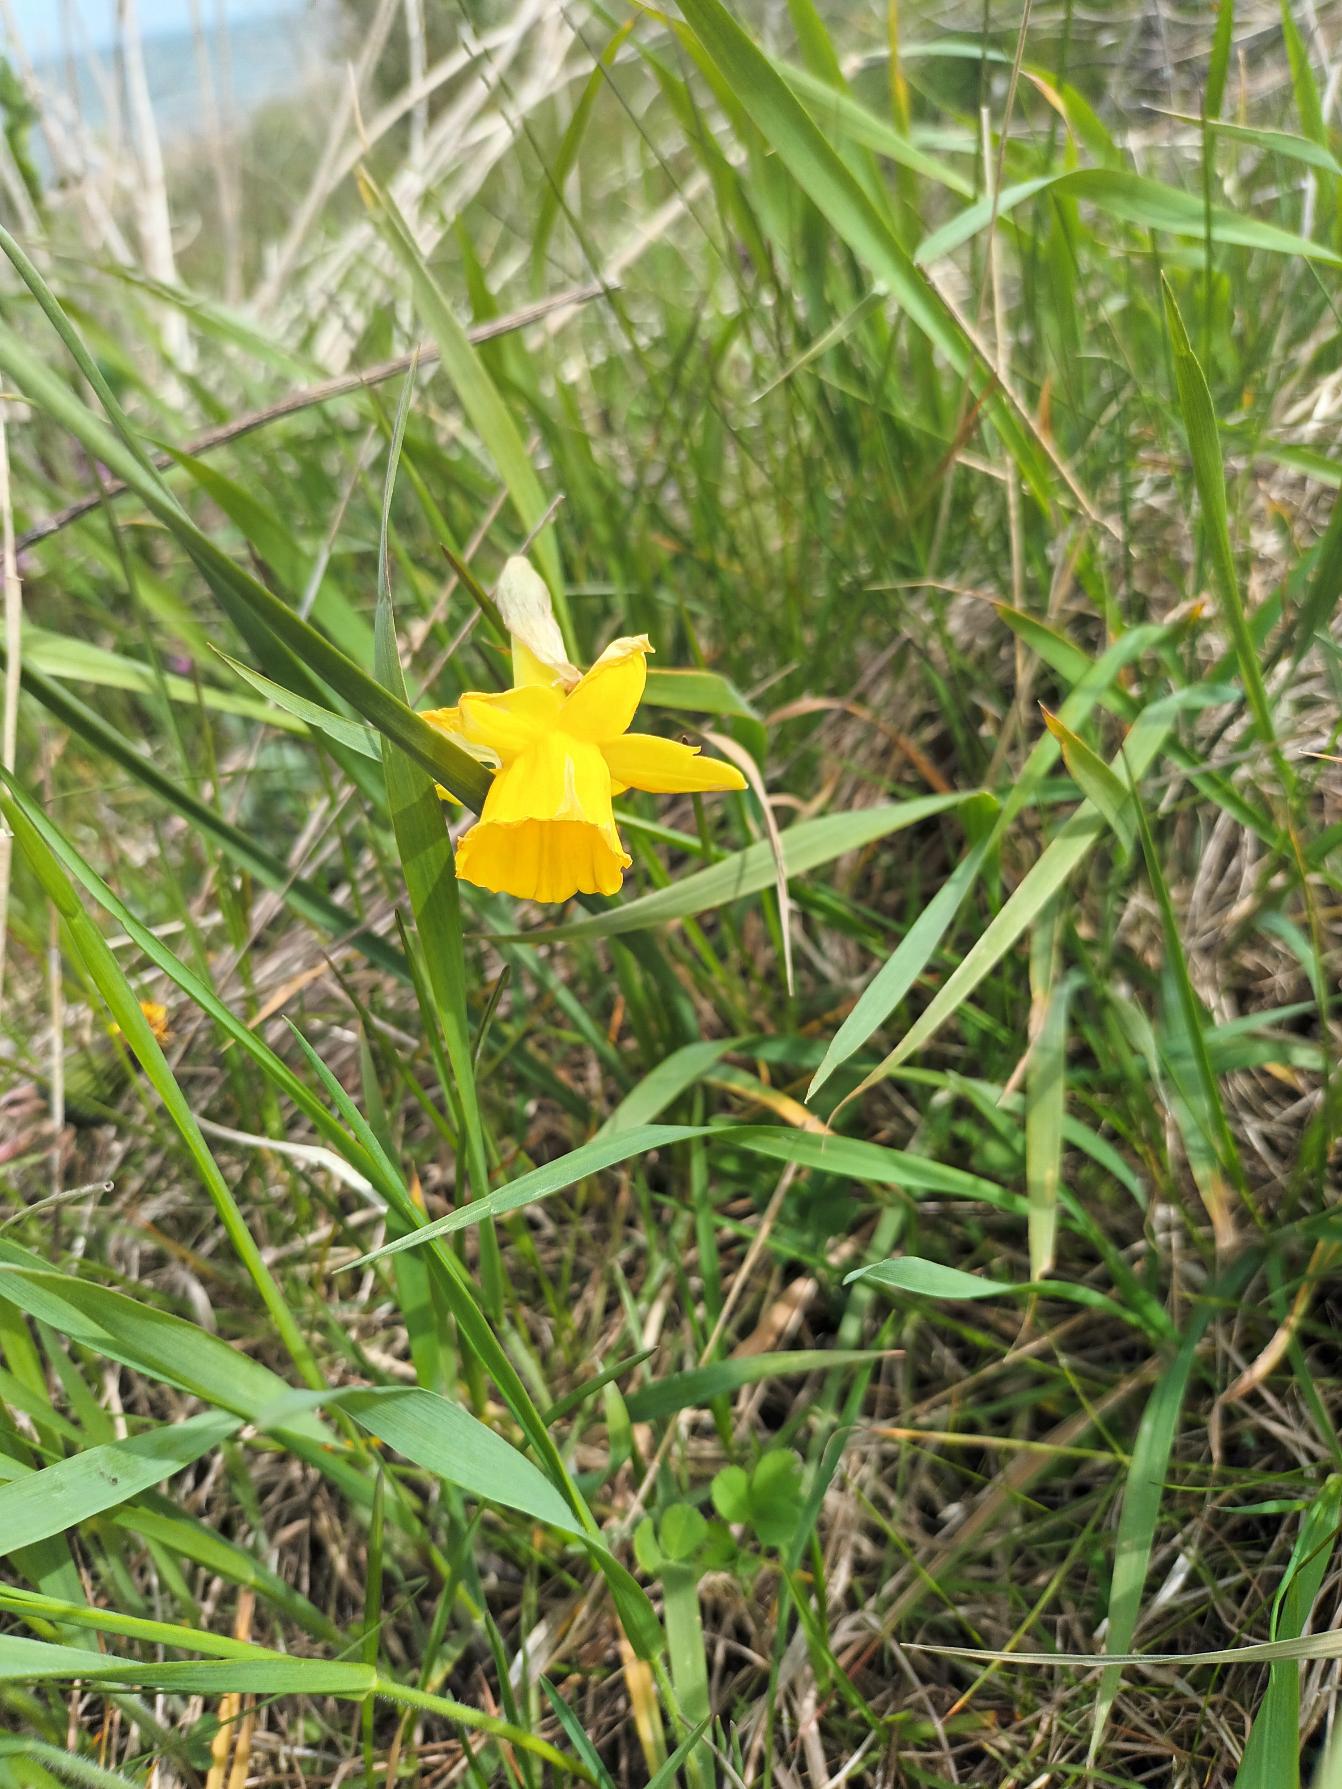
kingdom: Plantae
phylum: Tracheophyta
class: Liliopsida
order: Asparagales
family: Amaryllidaceae
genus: Narcissus
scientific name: Narcissus cyclazetta
